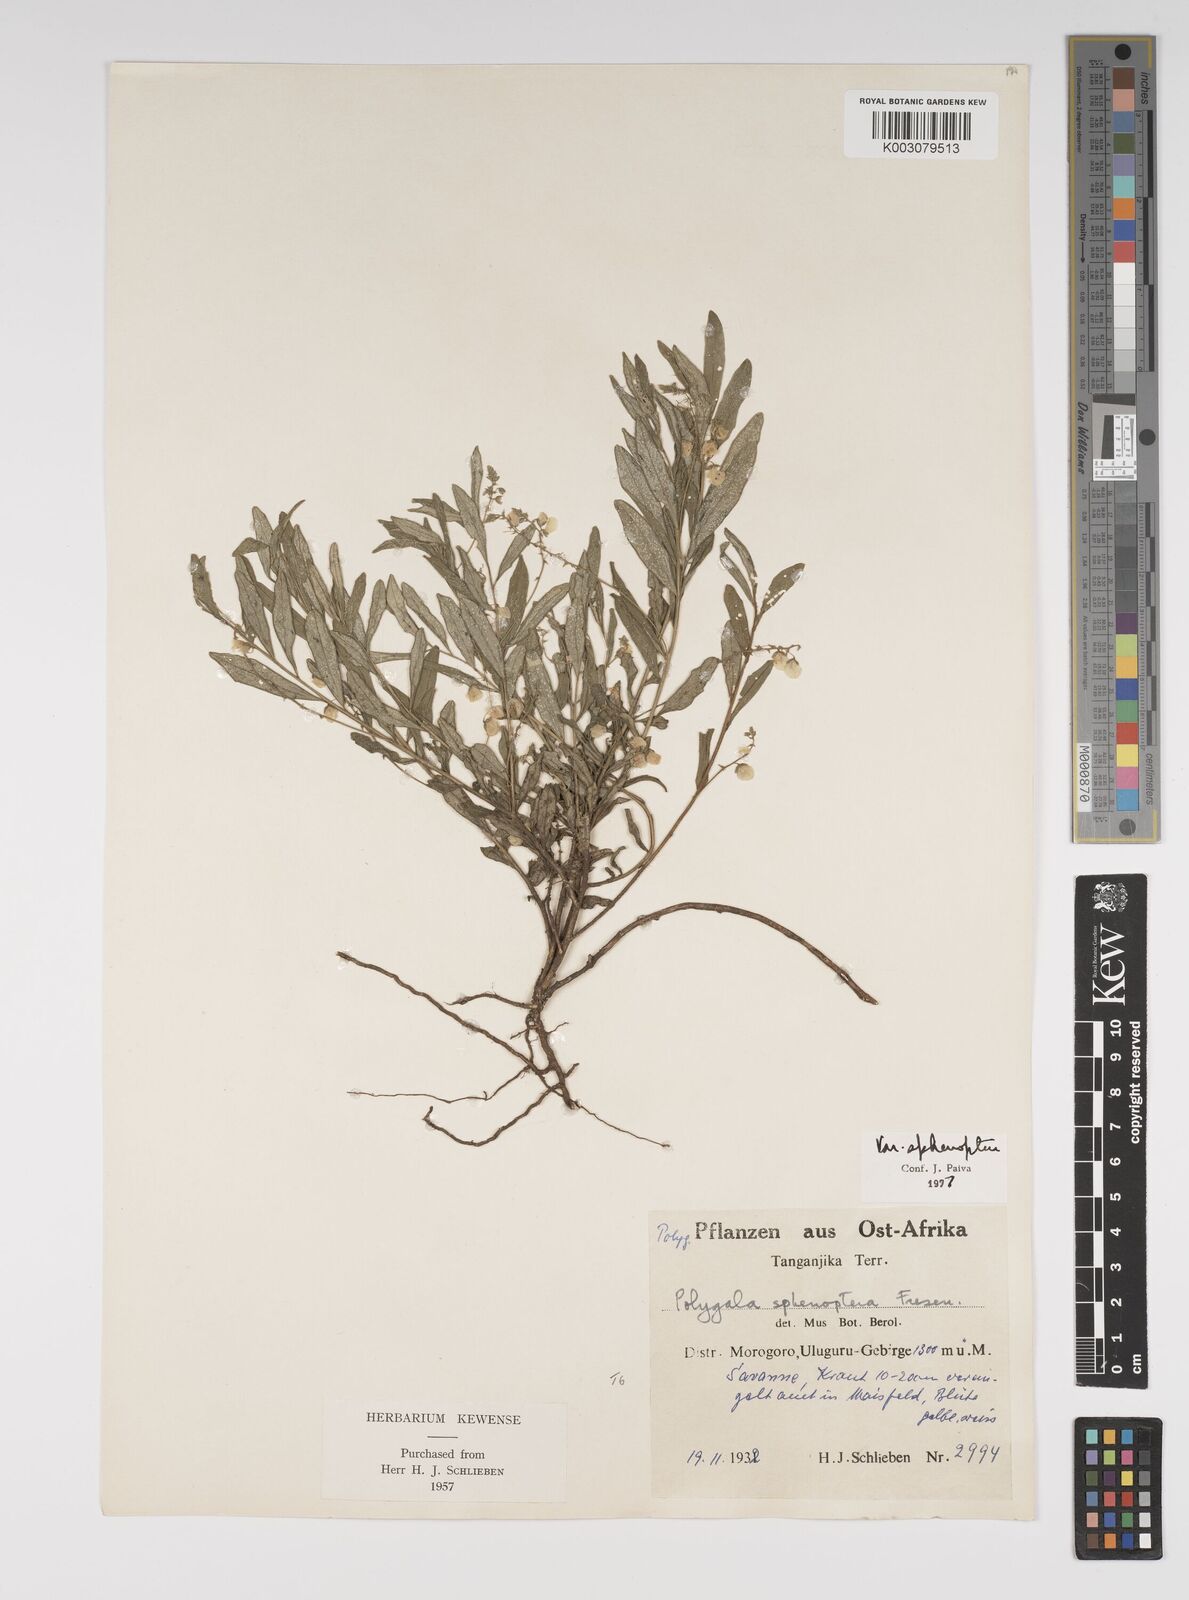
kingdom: Plantae
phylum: Tracheophyta
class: Magnoliopsida
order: Fabales
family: Polygalaceae
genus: Polygala
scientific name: Polygala sphenoptera
